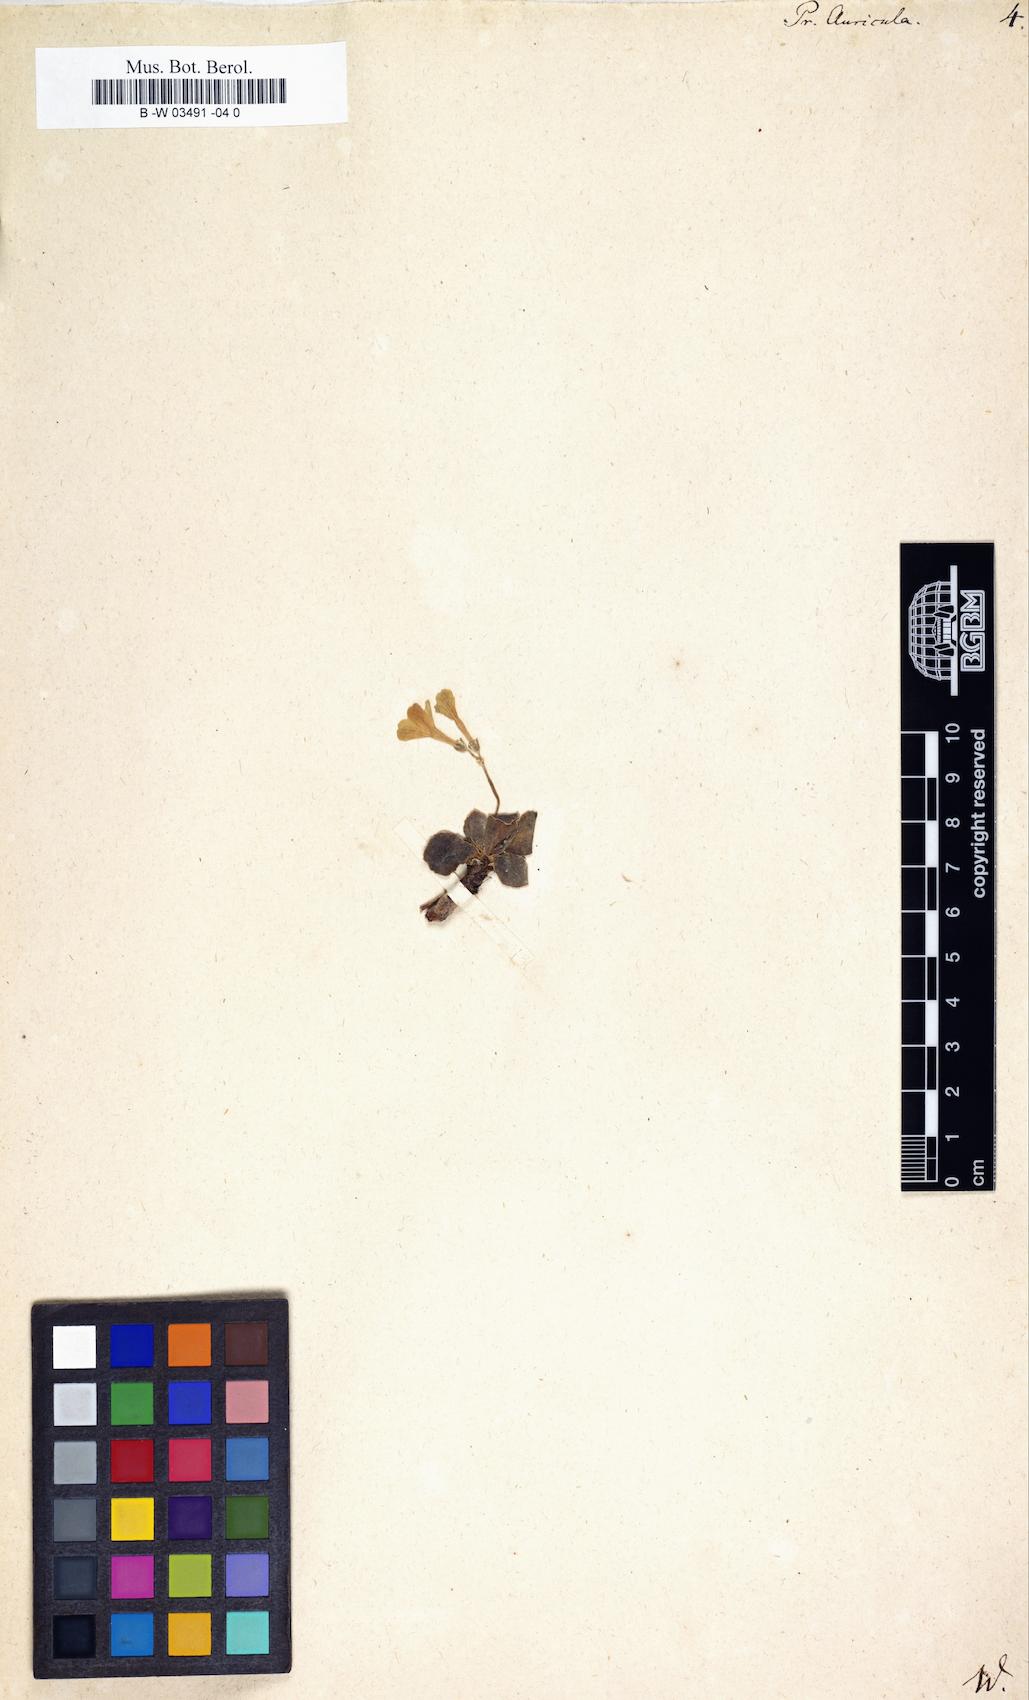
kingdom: Plantae
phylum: Tracheophyta
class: Magnoliopsida
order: Ericales
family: Primulaceae
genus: Primula
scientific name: Primula auricula
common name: Auricula
